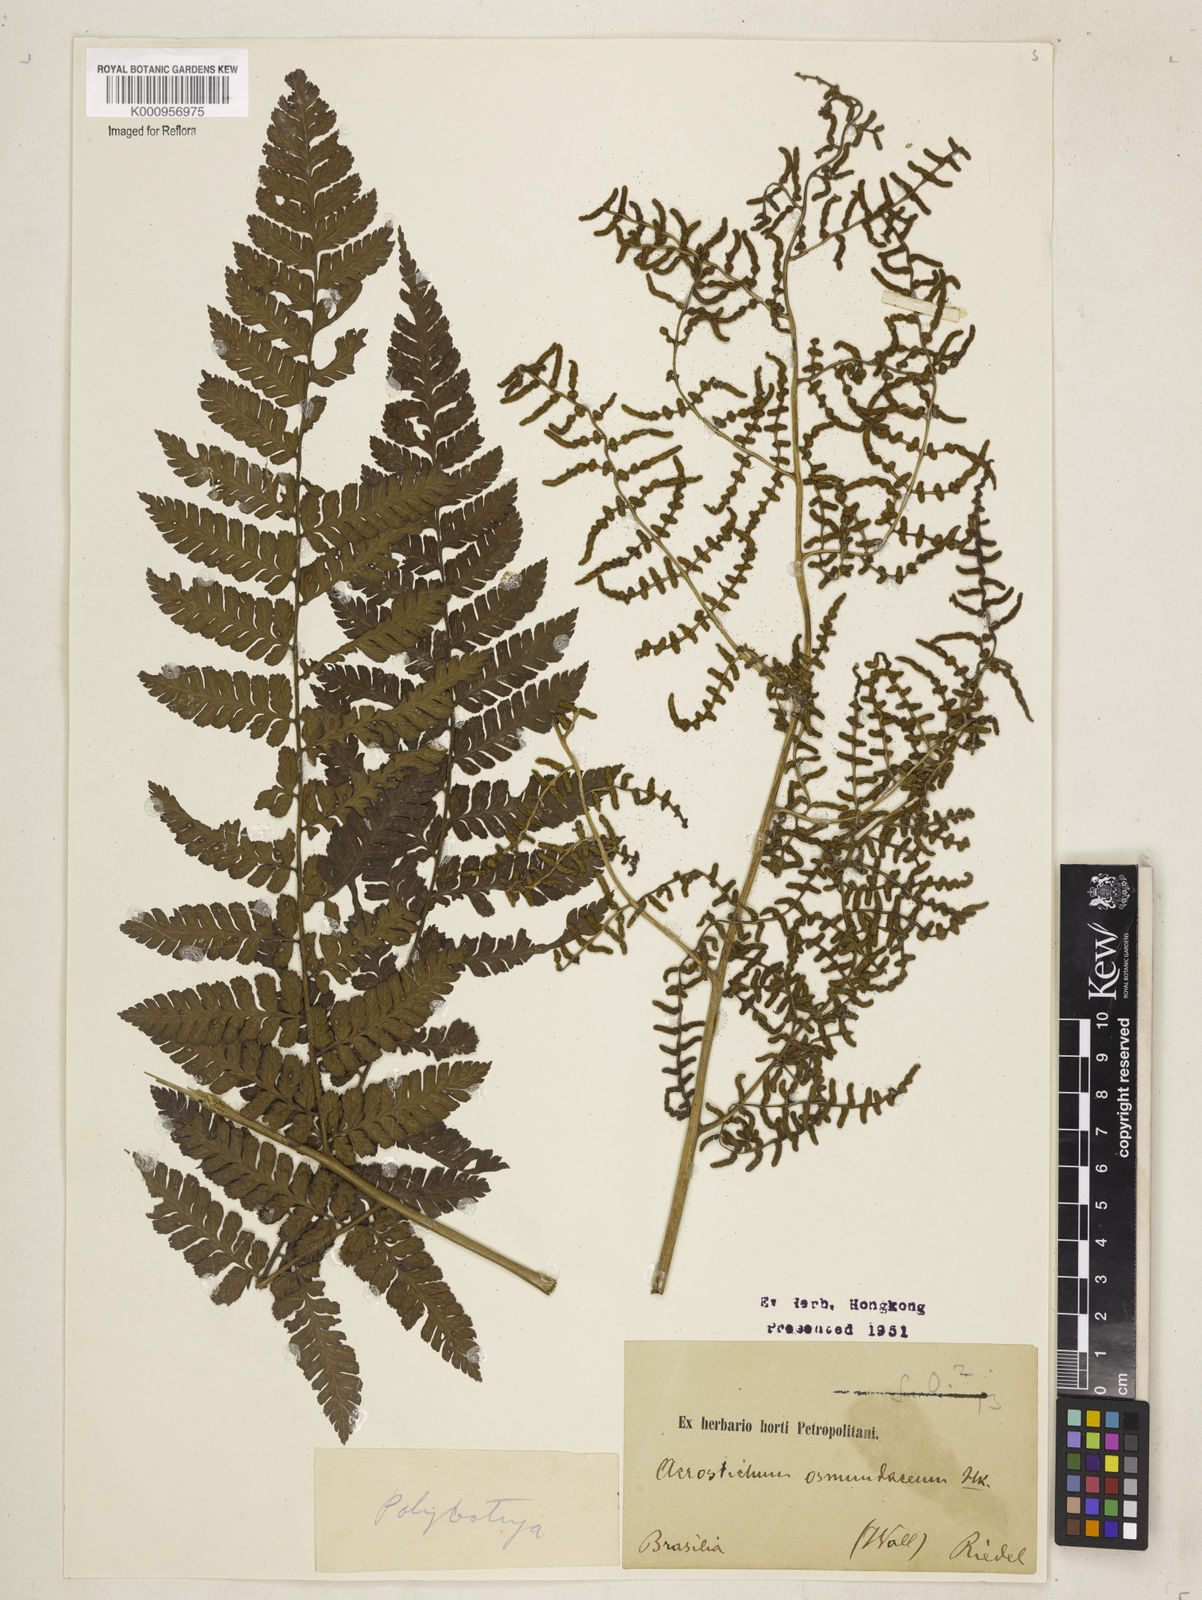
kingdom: Plantae
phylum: Tracheophyta
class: Polypodiopsida
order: Polypodiales
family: Dryopteridaceae
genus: Polybotrya
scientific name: Polybotrya osmundacea
